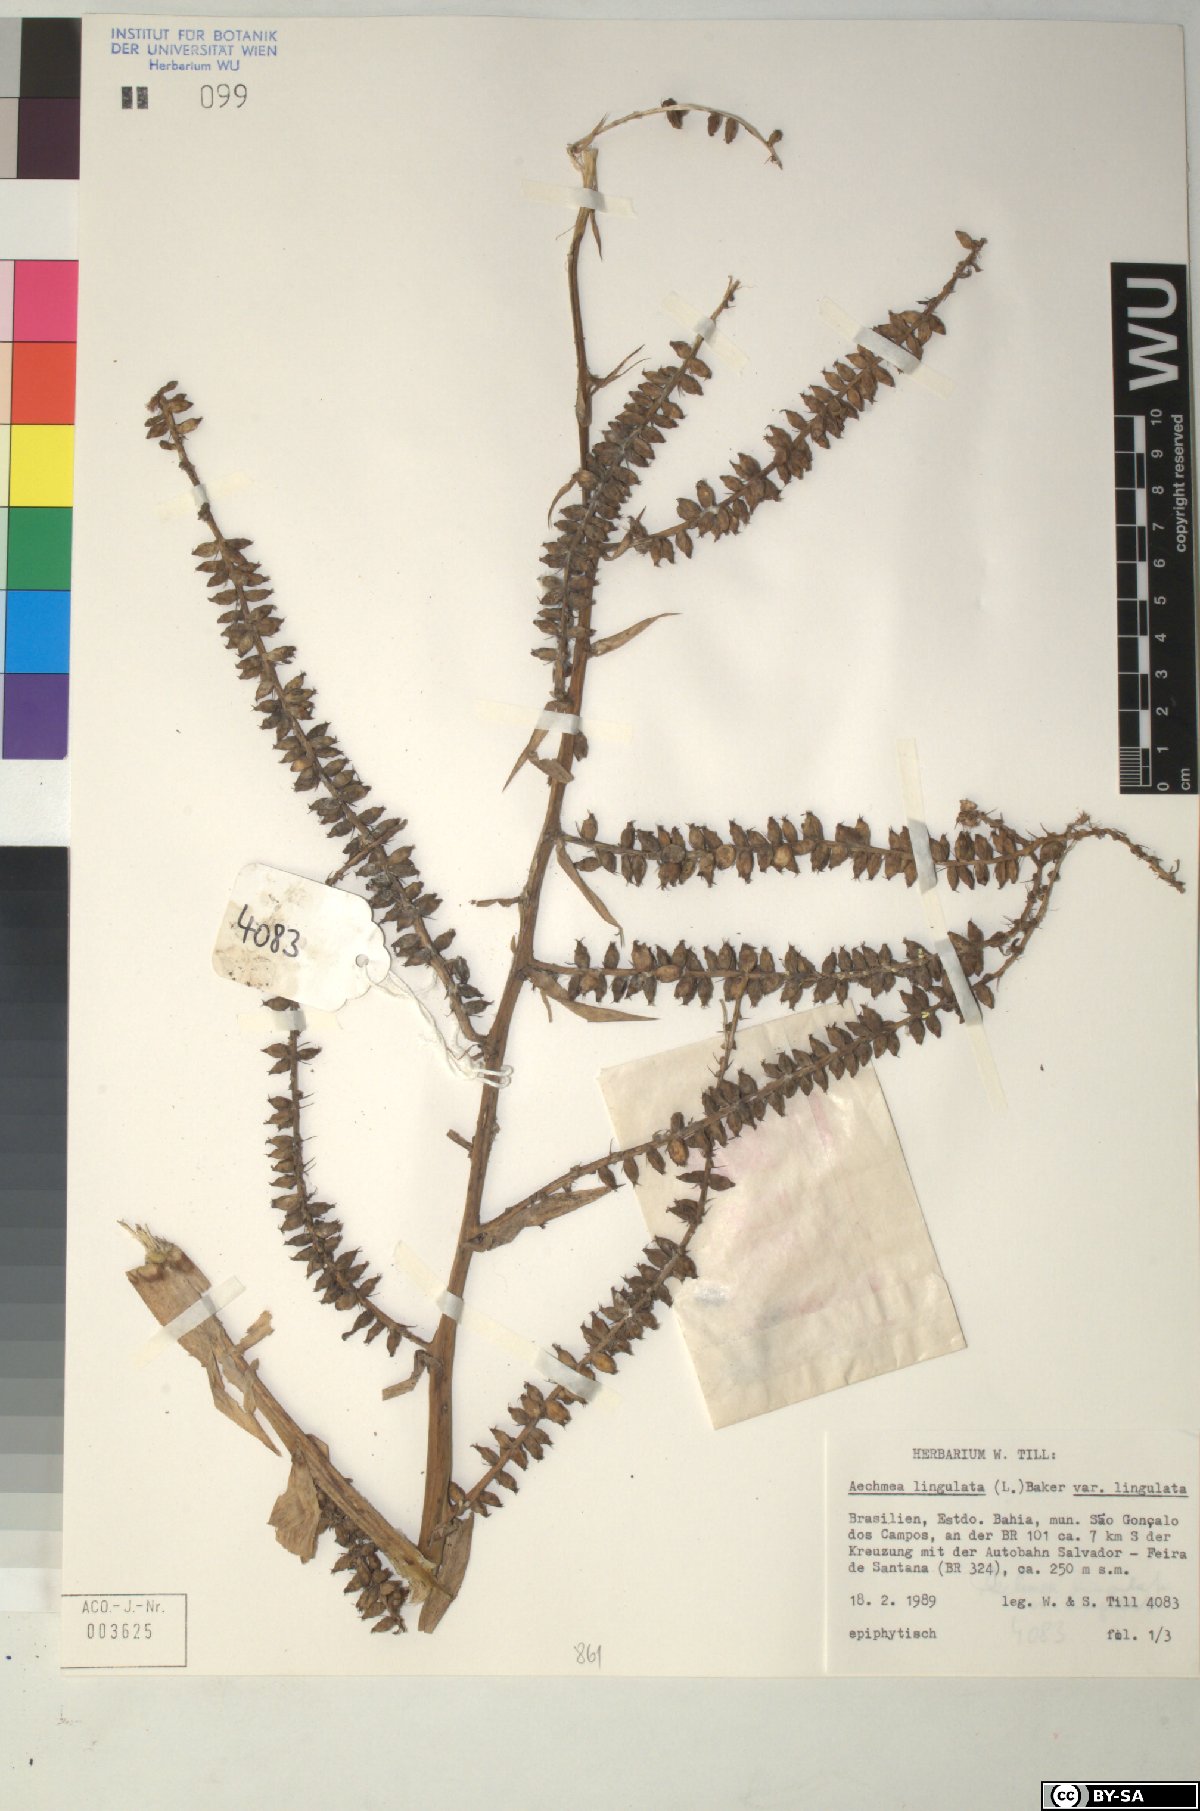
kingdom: Plantae
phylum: Tracheophyta
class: Liliopsida
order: Poales
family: Bromeliaceae
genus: Aechmea
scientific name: Aechmea
